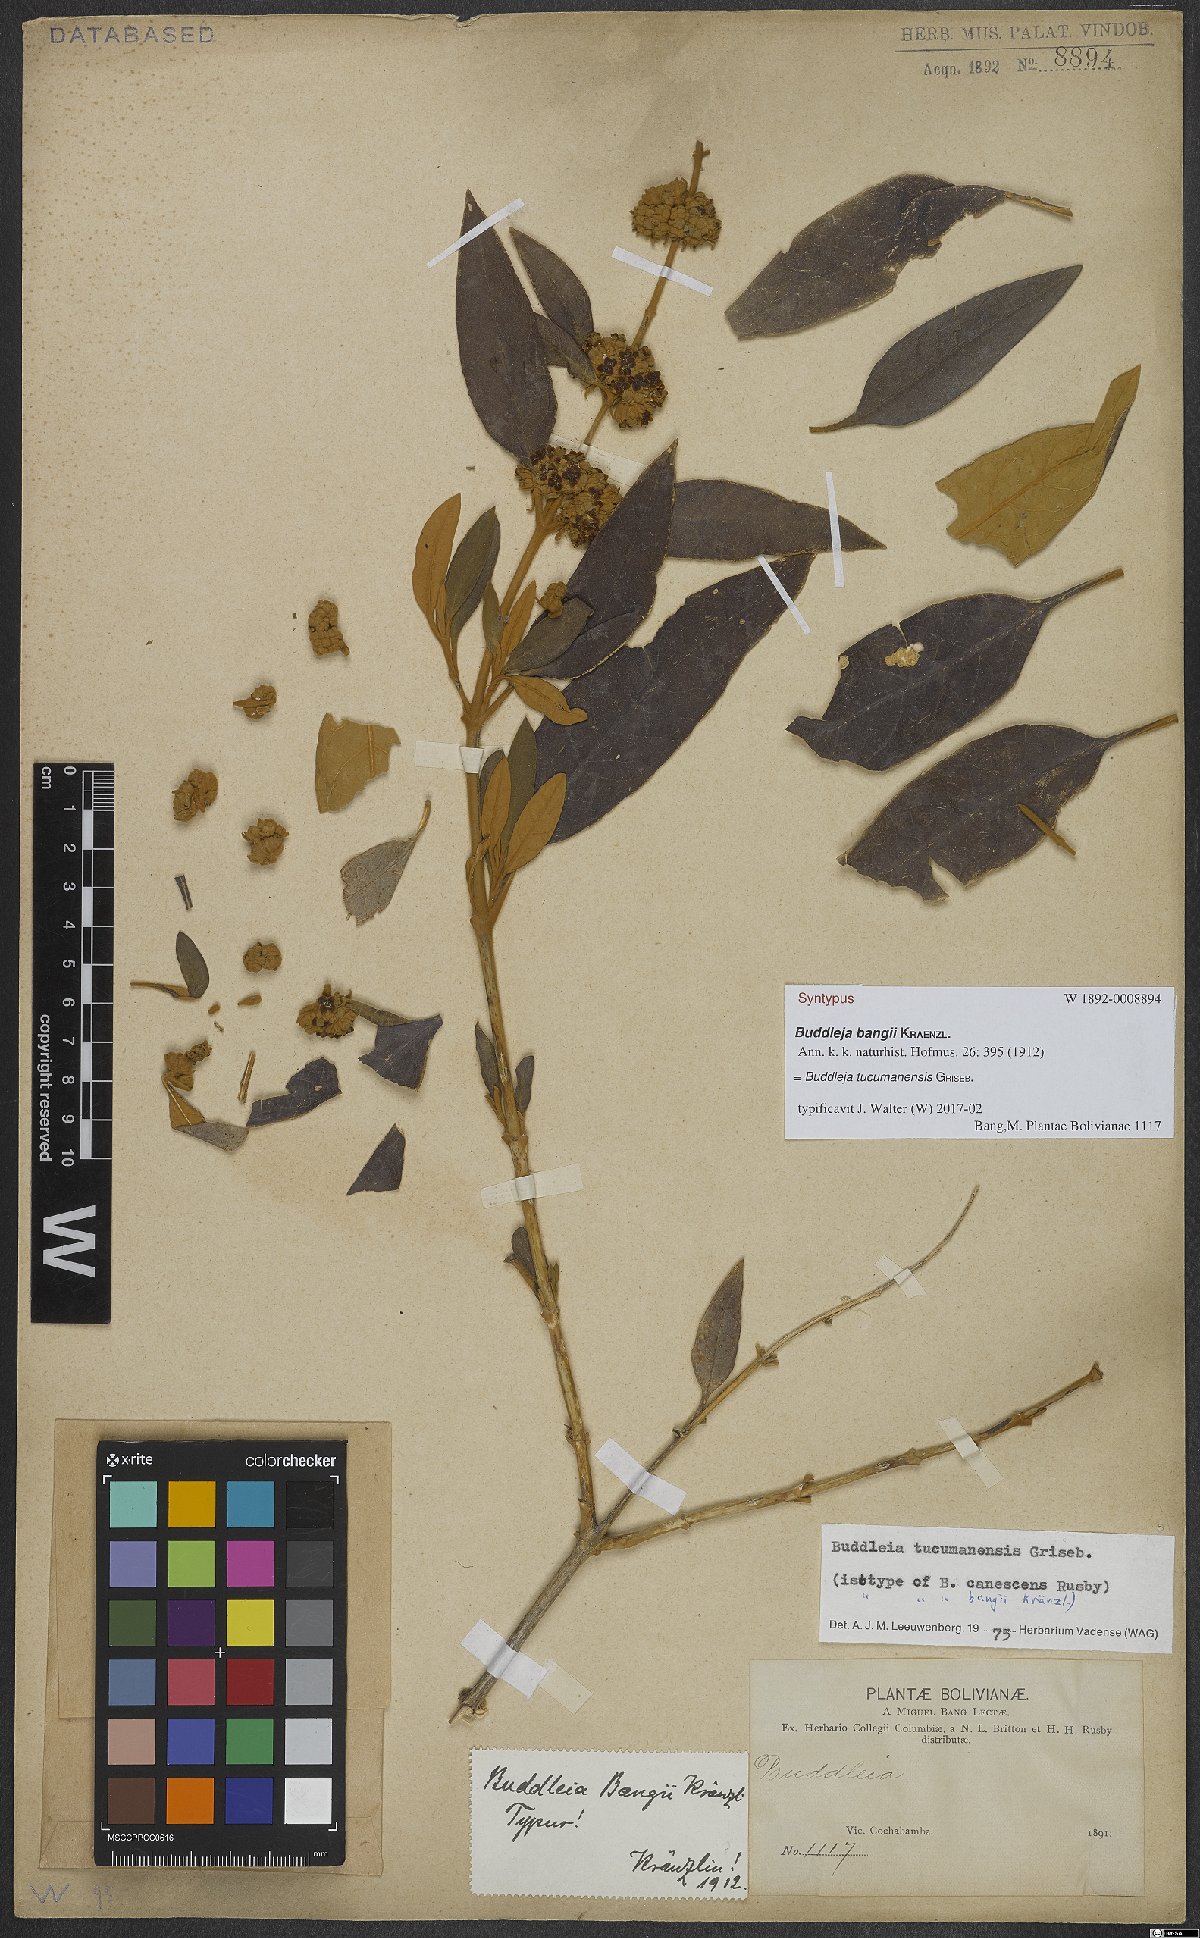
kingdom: Plantae
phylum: Tracheophyta
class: Magnoliopsida
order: Lamiales
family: Scrophulariaceae
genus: Buddleja
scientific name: Buddleja tucumanensis
